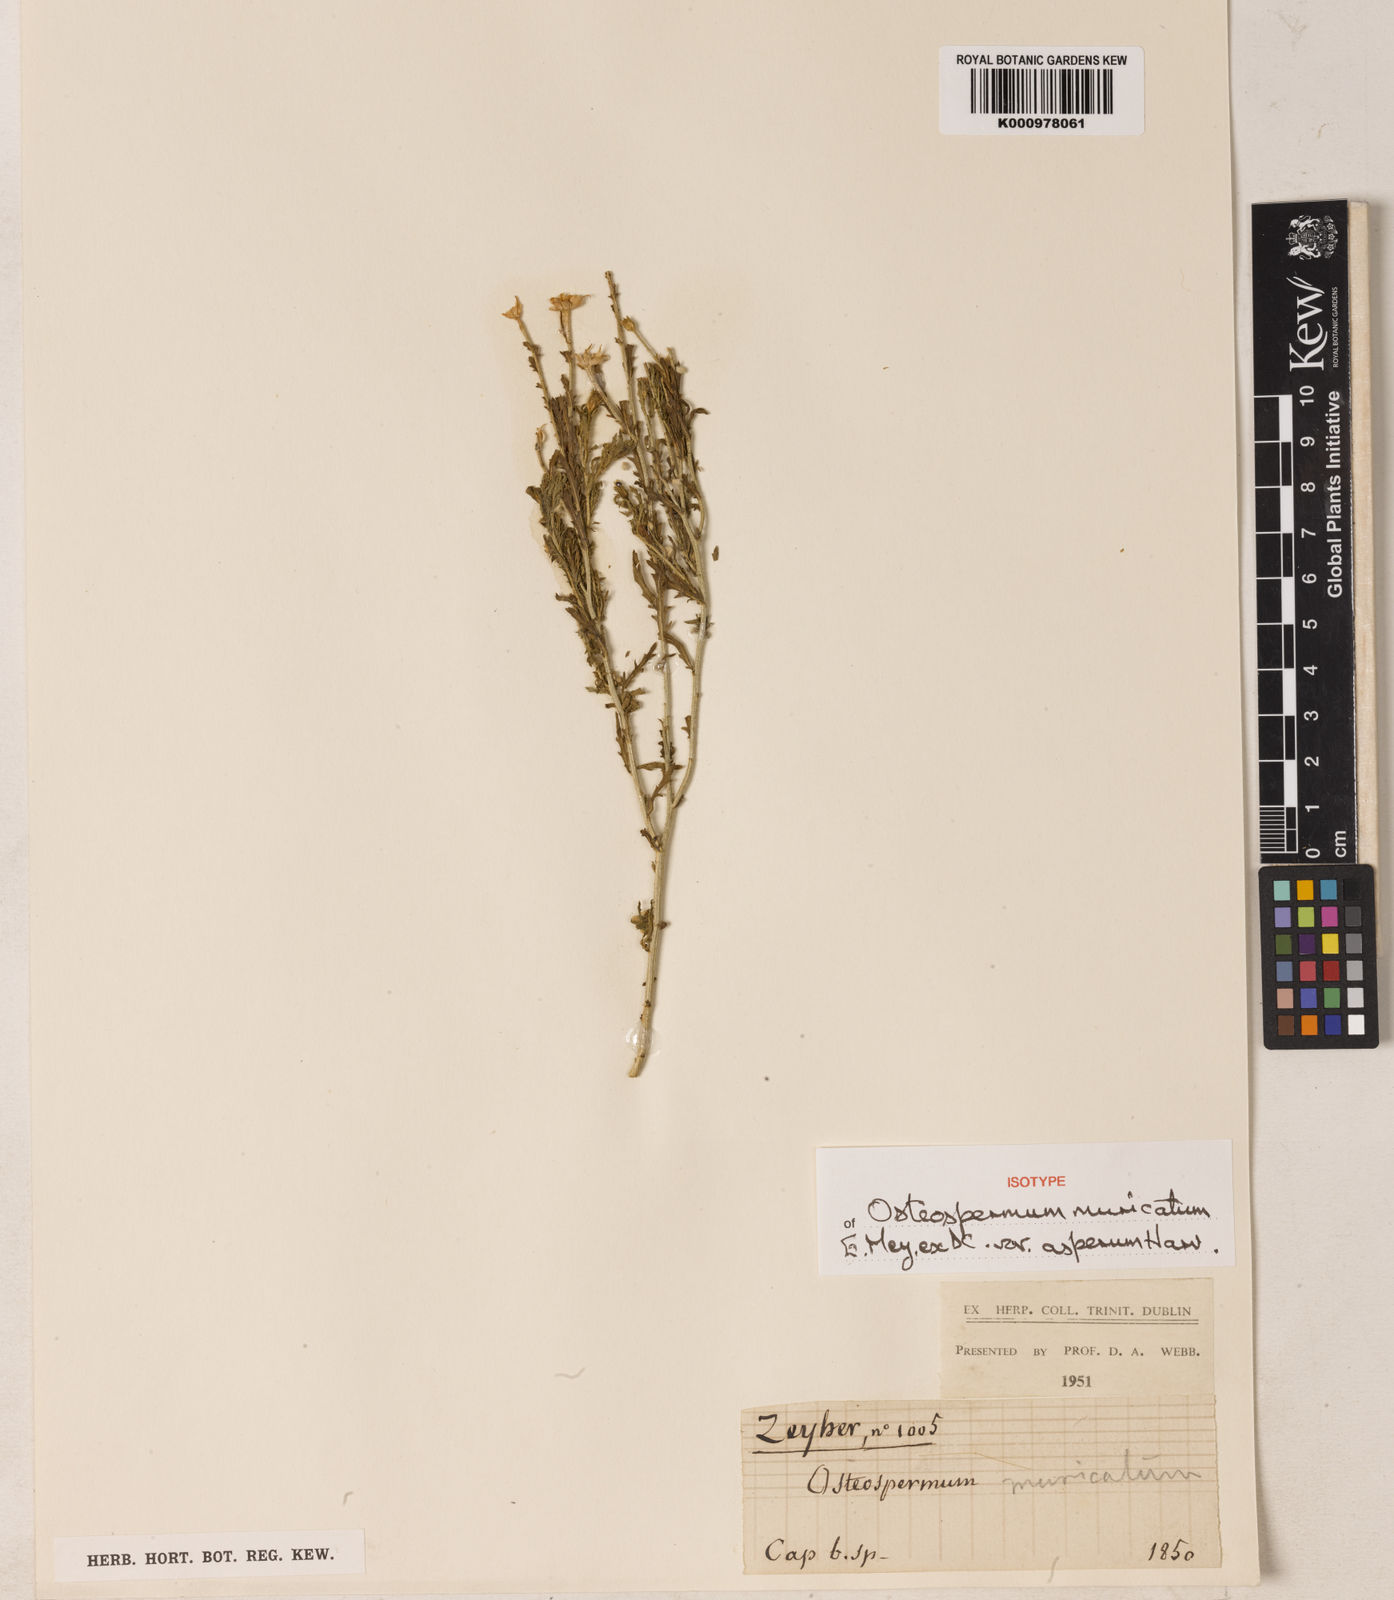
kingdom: Plantae
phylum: Tracheophyta
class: Magnoliopsida
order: Asterales
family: Asteraceae
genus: Osteospermum
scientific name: Osteospermum
